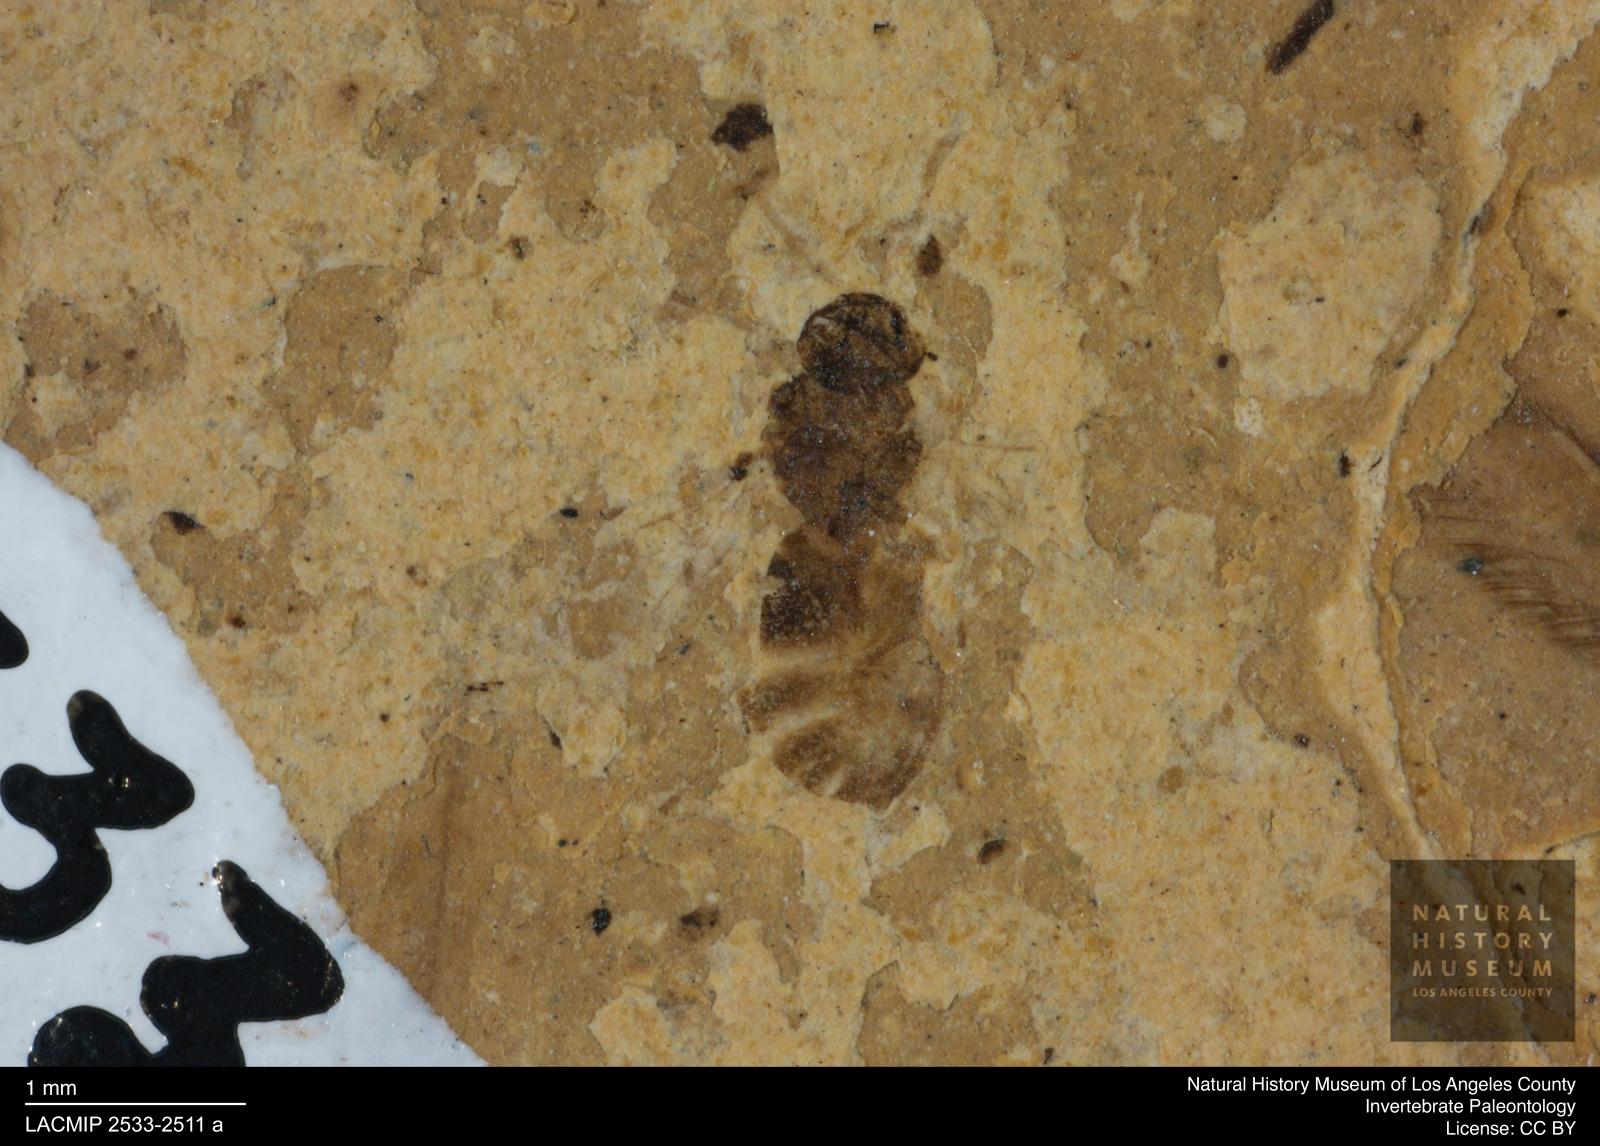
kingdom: Animalia
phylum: Arthropoda
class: Insecta
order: Hymenoptera
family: Formicidae
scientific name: Formicidae
